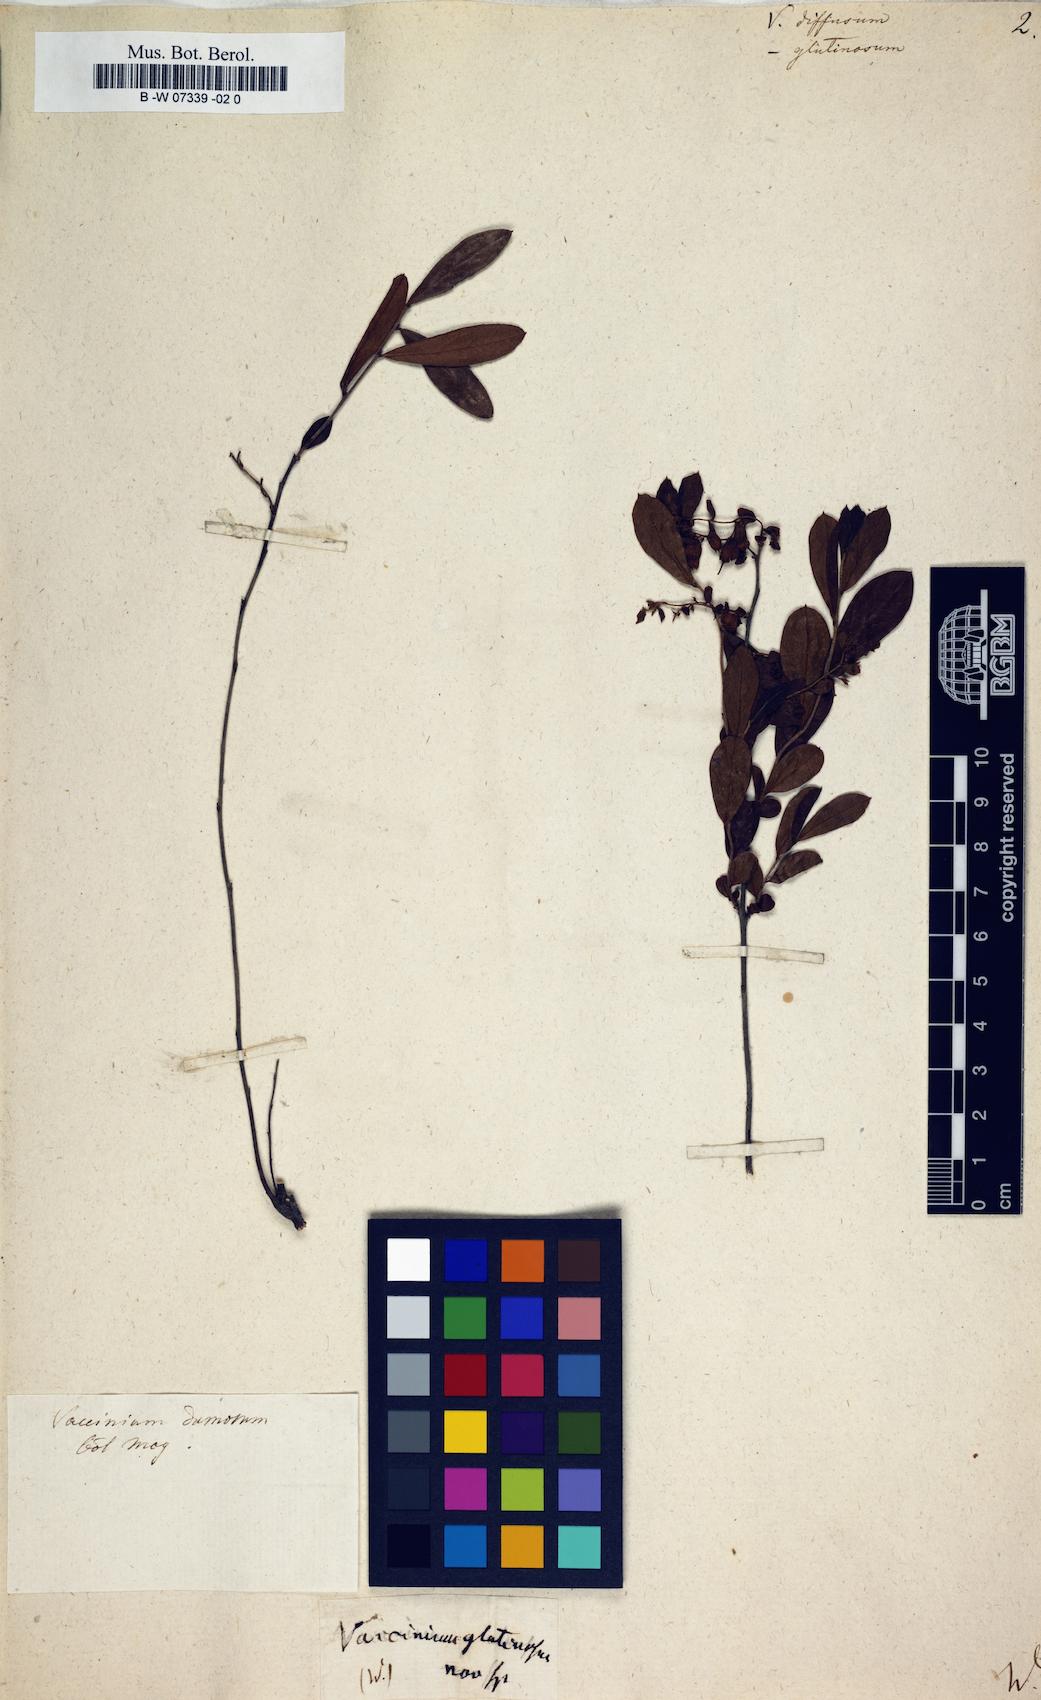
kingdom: Plantae
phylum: Tracheophyta
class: Magnoliopsida
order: Ericales
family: Ericaceae
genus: Vaccinium
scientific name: Vaccinium arboreum
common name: Farkleberry
